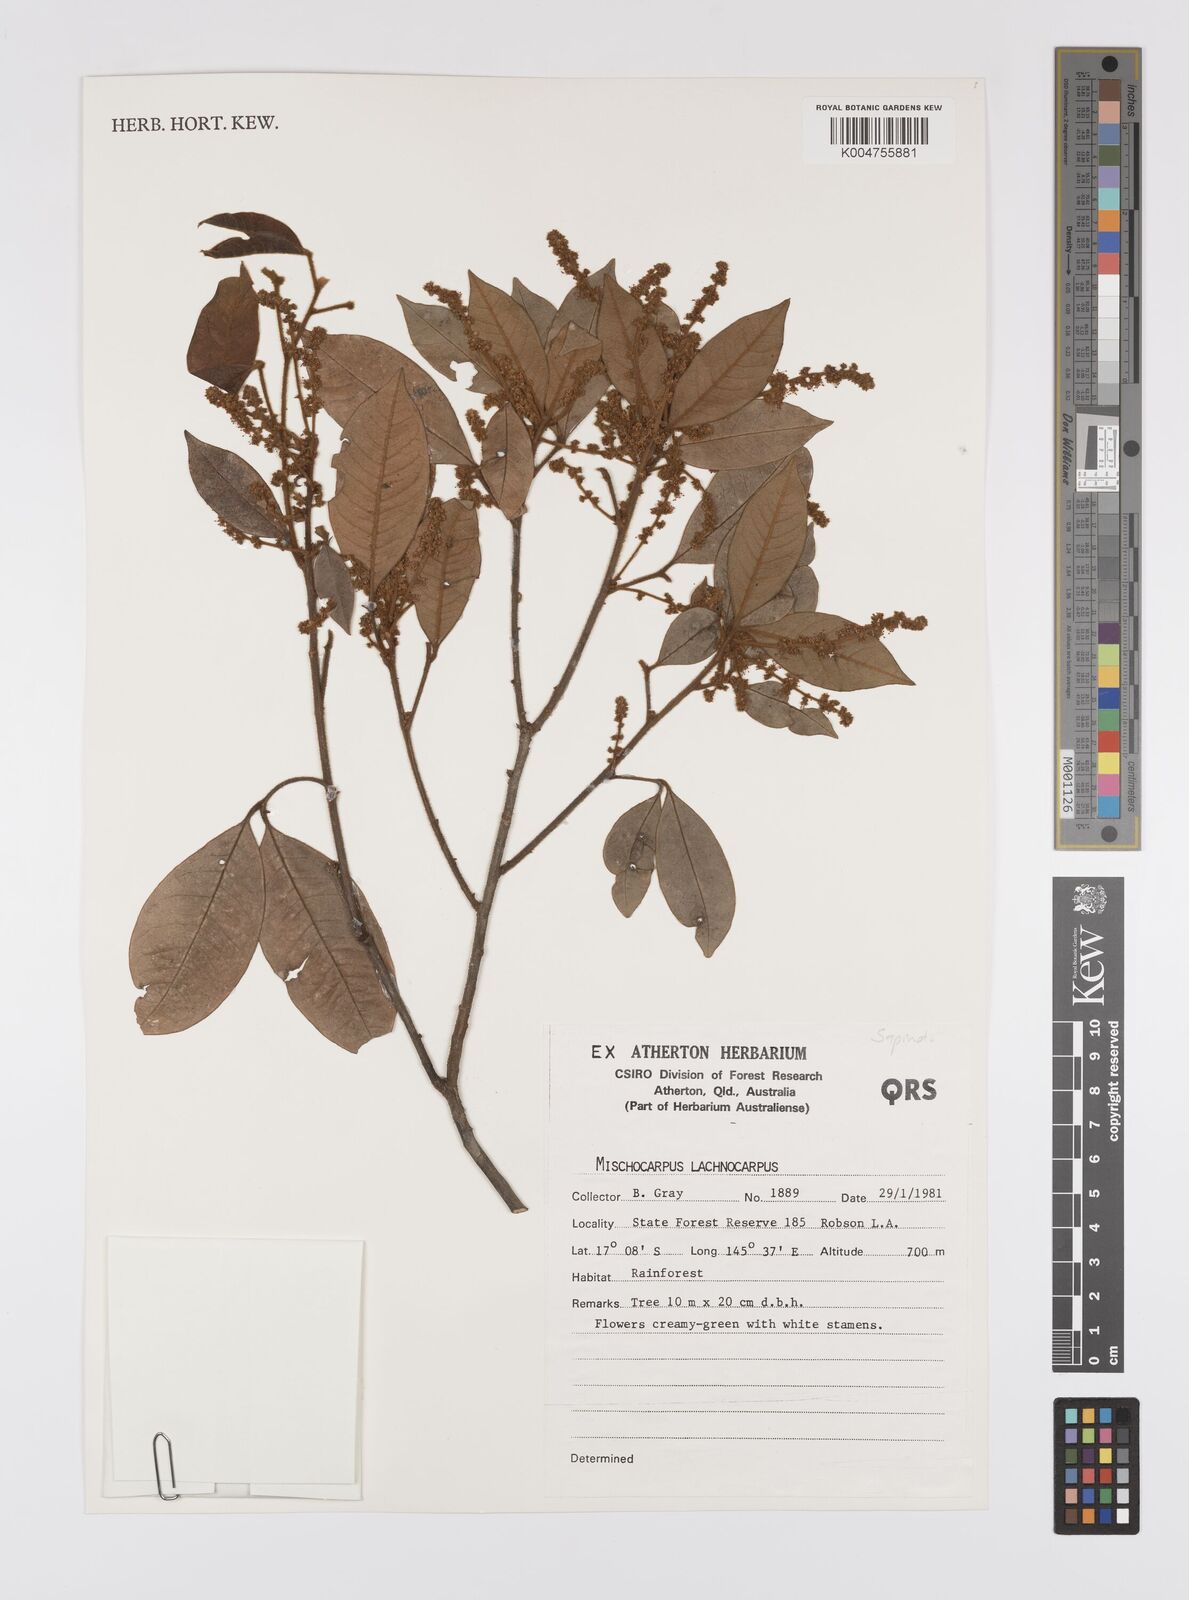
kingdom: Plantae
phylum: Tracheophyta
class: Magnoliopsida
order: Sapindales
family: Sapindaceae
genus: Mischocarpus
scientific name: Mischocarpus lachnocarpus
